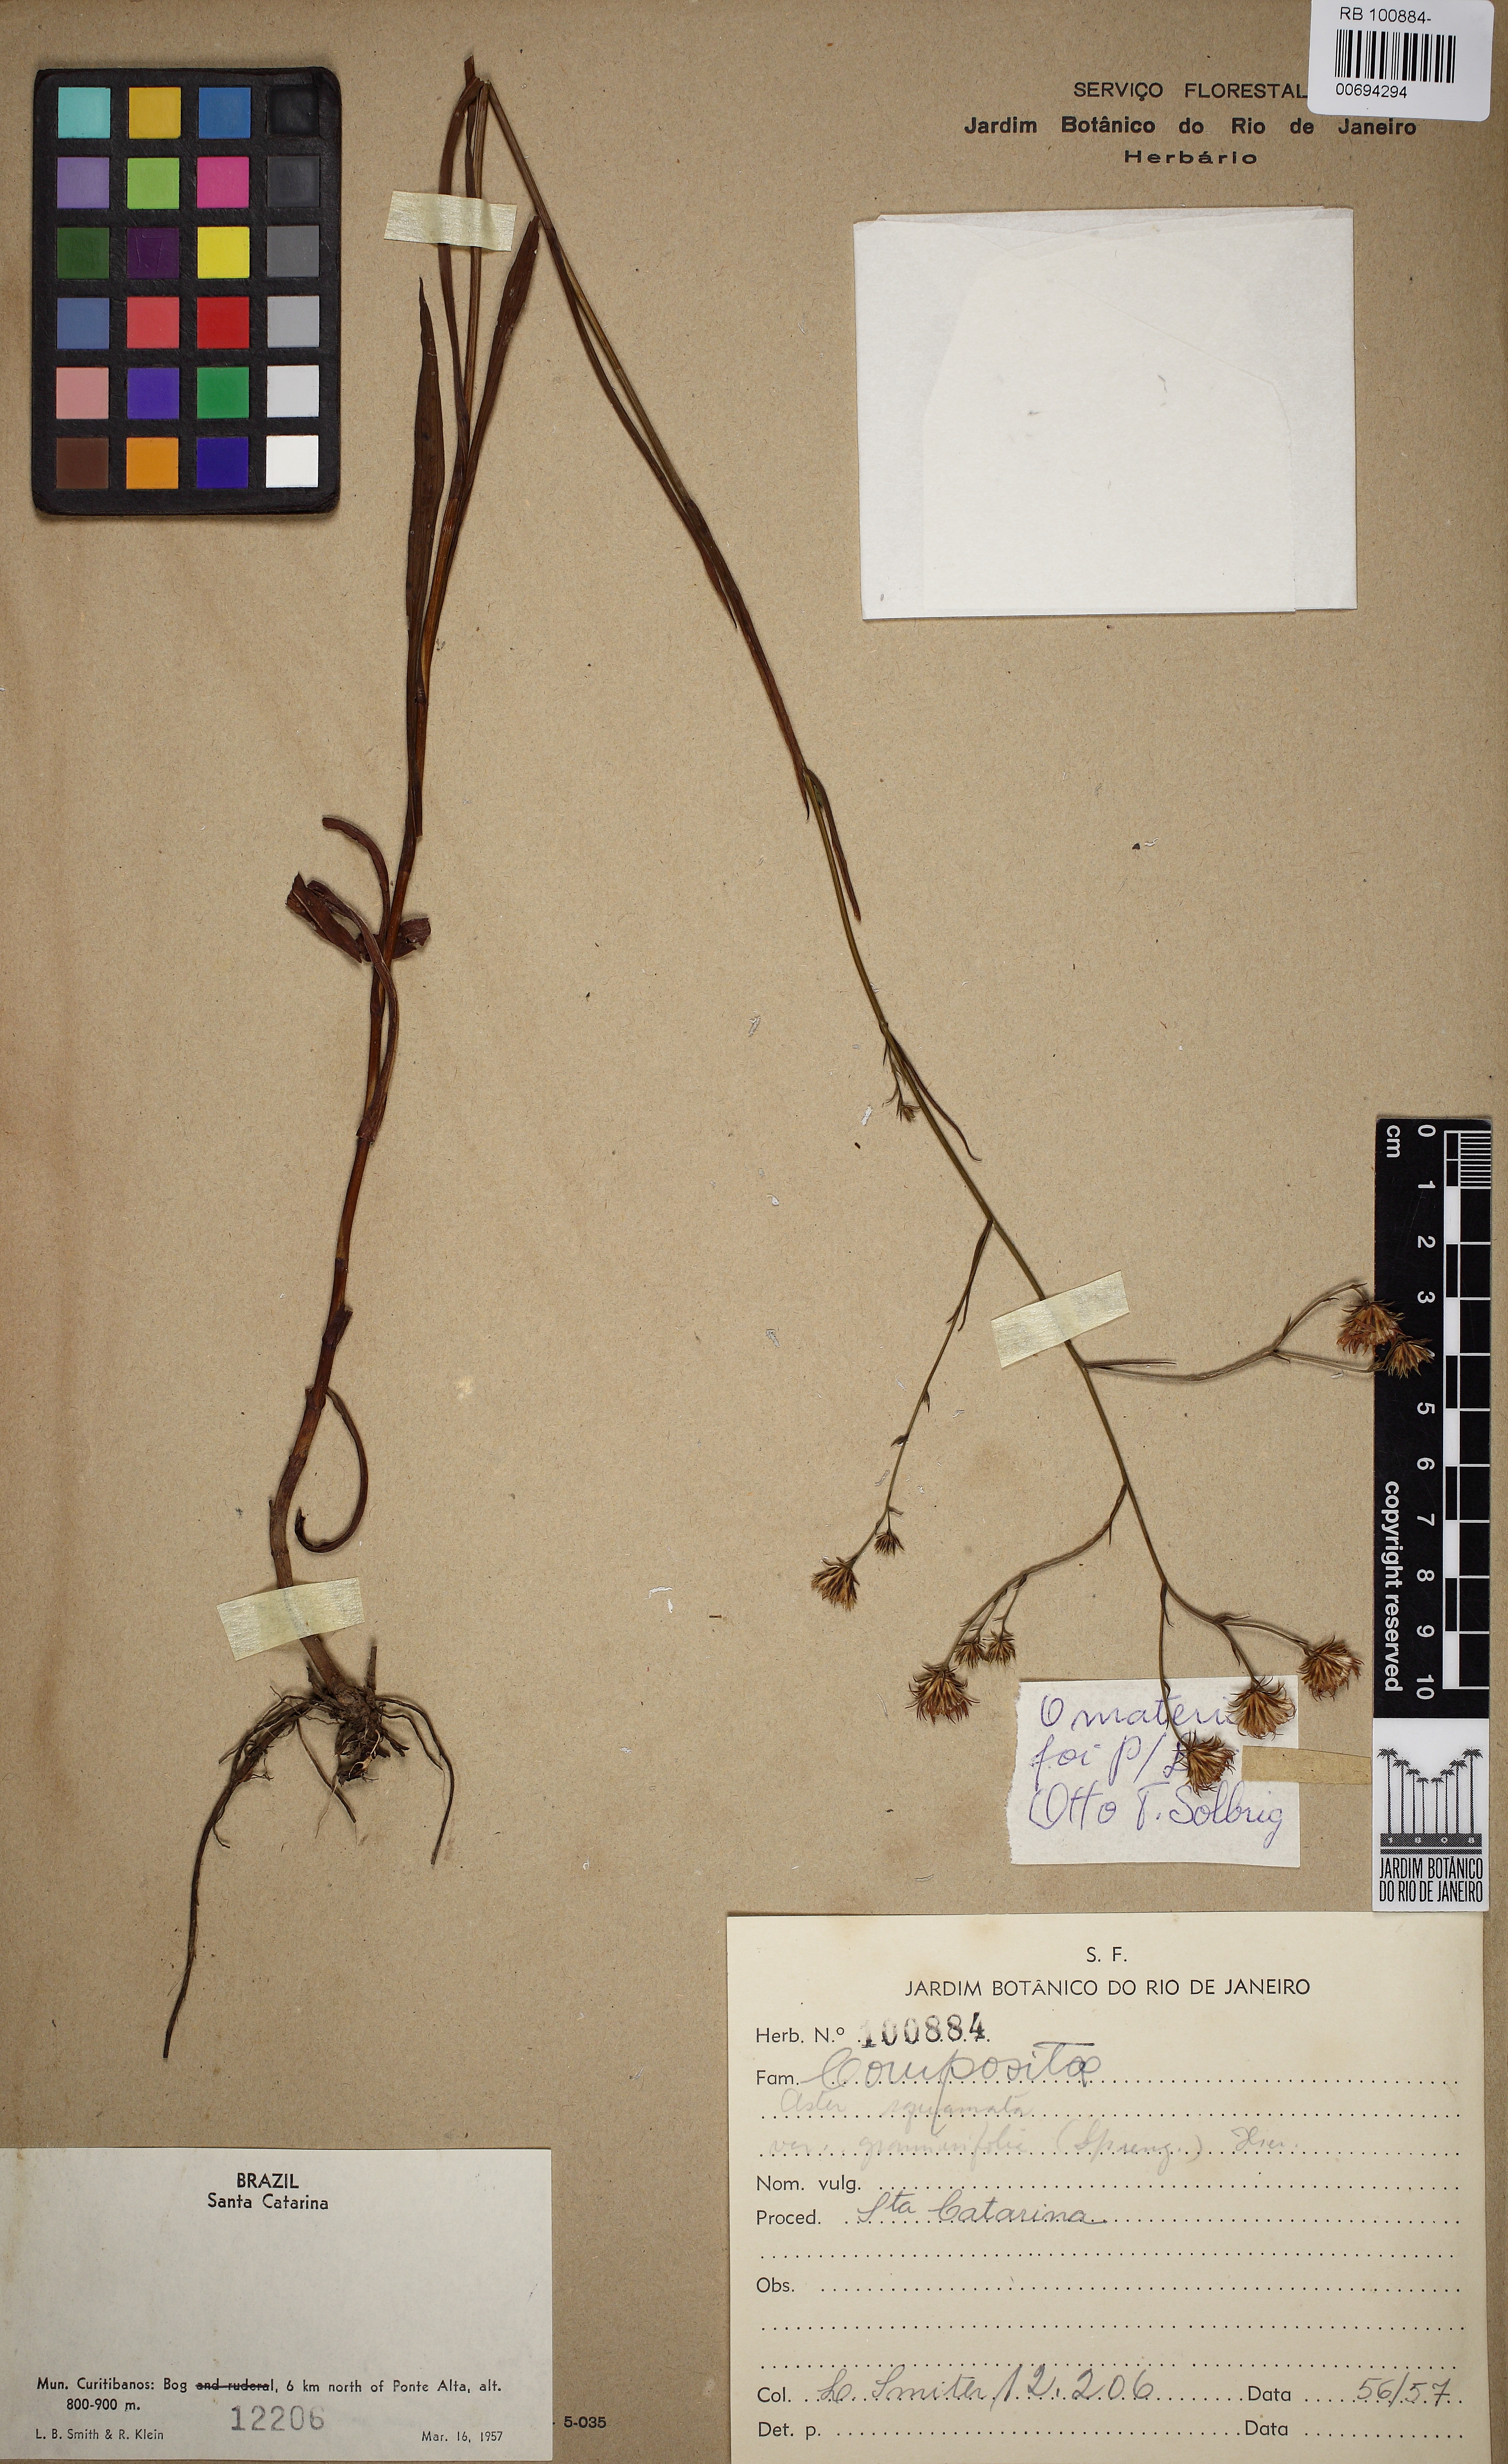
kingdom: Plantae
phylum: Tracheophyta
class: Magnoliopsida
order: Asterales
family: Asteraceae
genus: Symphyotrichum
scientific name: Symphyotrichum graminifolium
